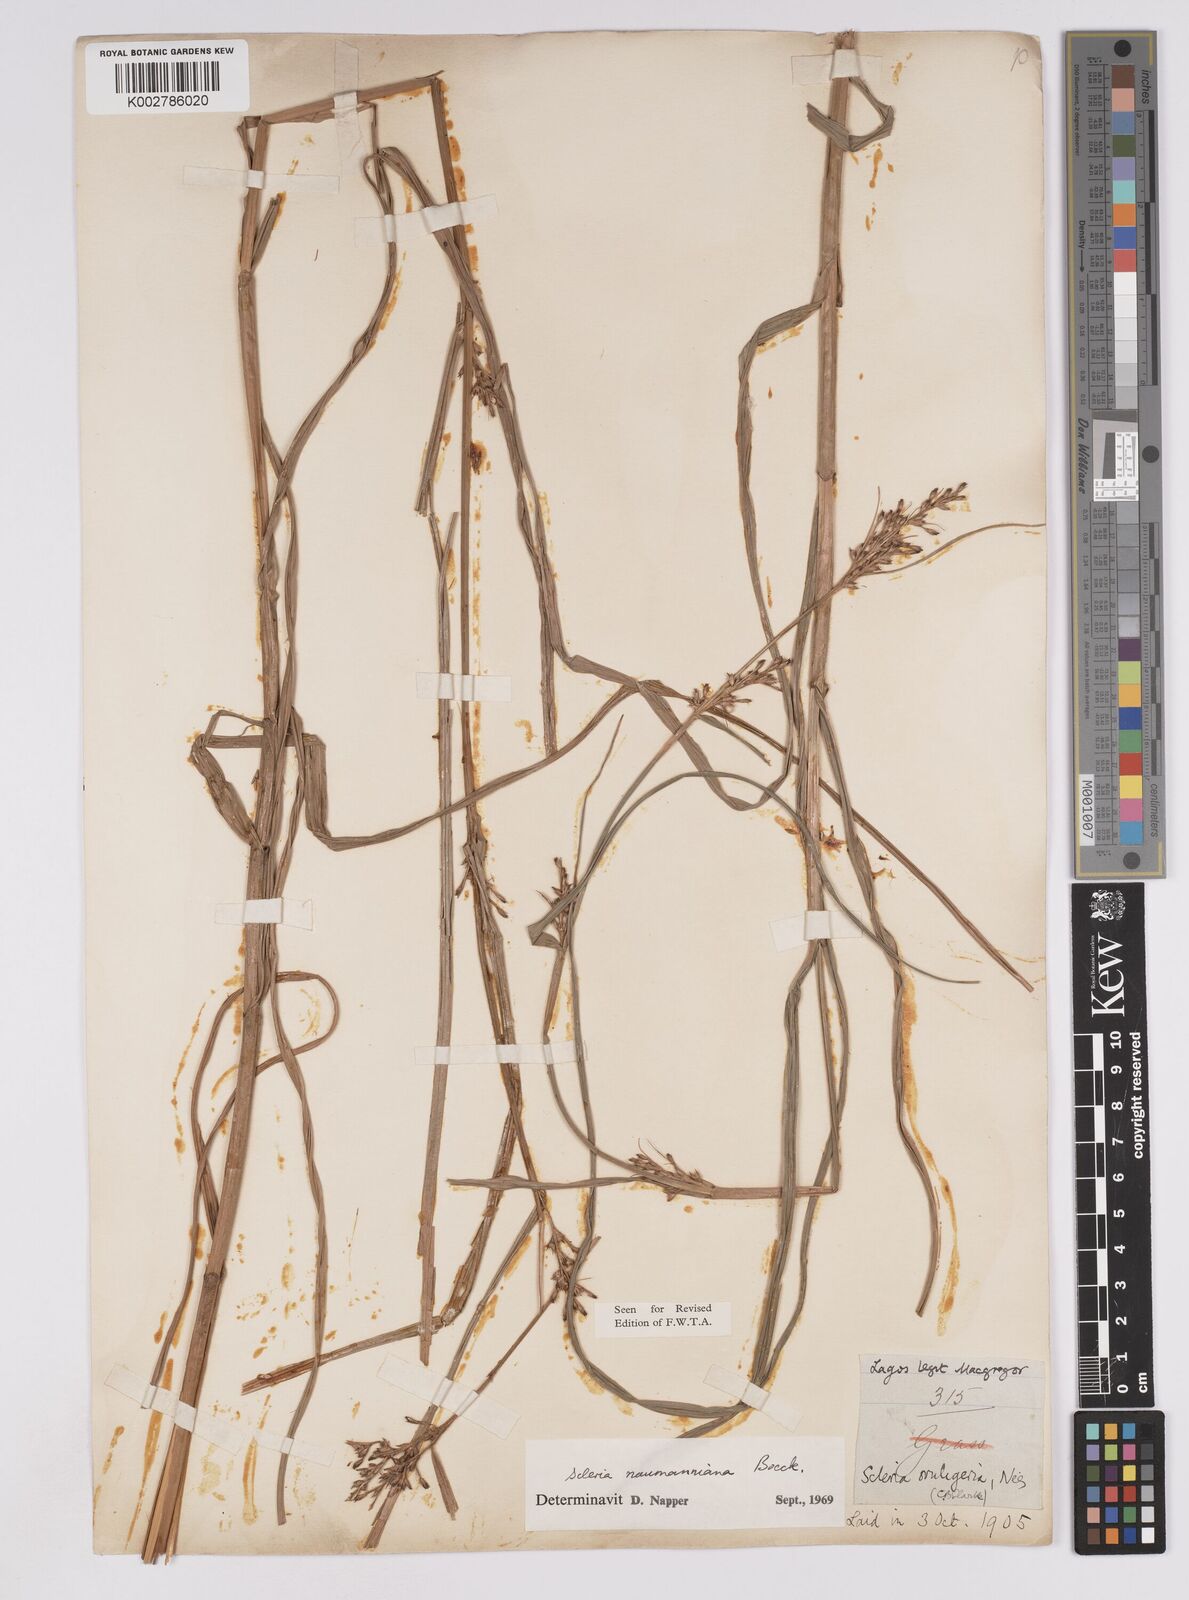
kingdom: Plantae
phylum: Tracheophyta
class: Liliopsida
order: Poales
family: Cyperaceae
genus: Scleria
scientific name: Scleria naumanniana
